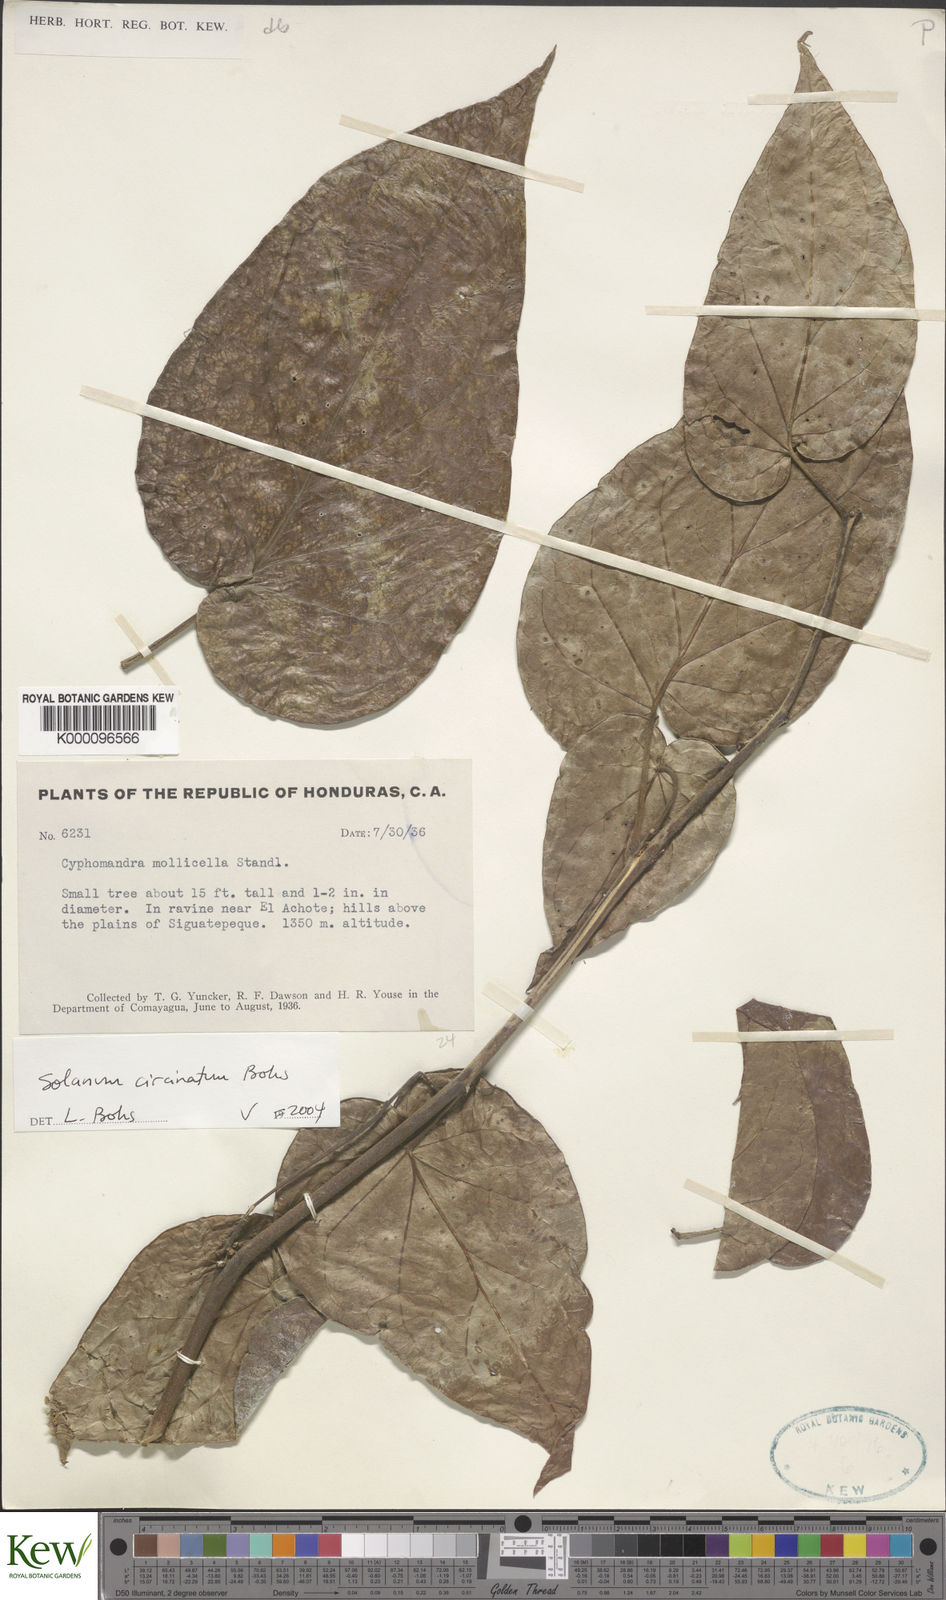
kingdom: Plantae
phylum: Tracheophyta
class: Magnoliopsida
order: Solanales
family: Solanaceae
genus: Solanum
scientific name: Solanum splendens
